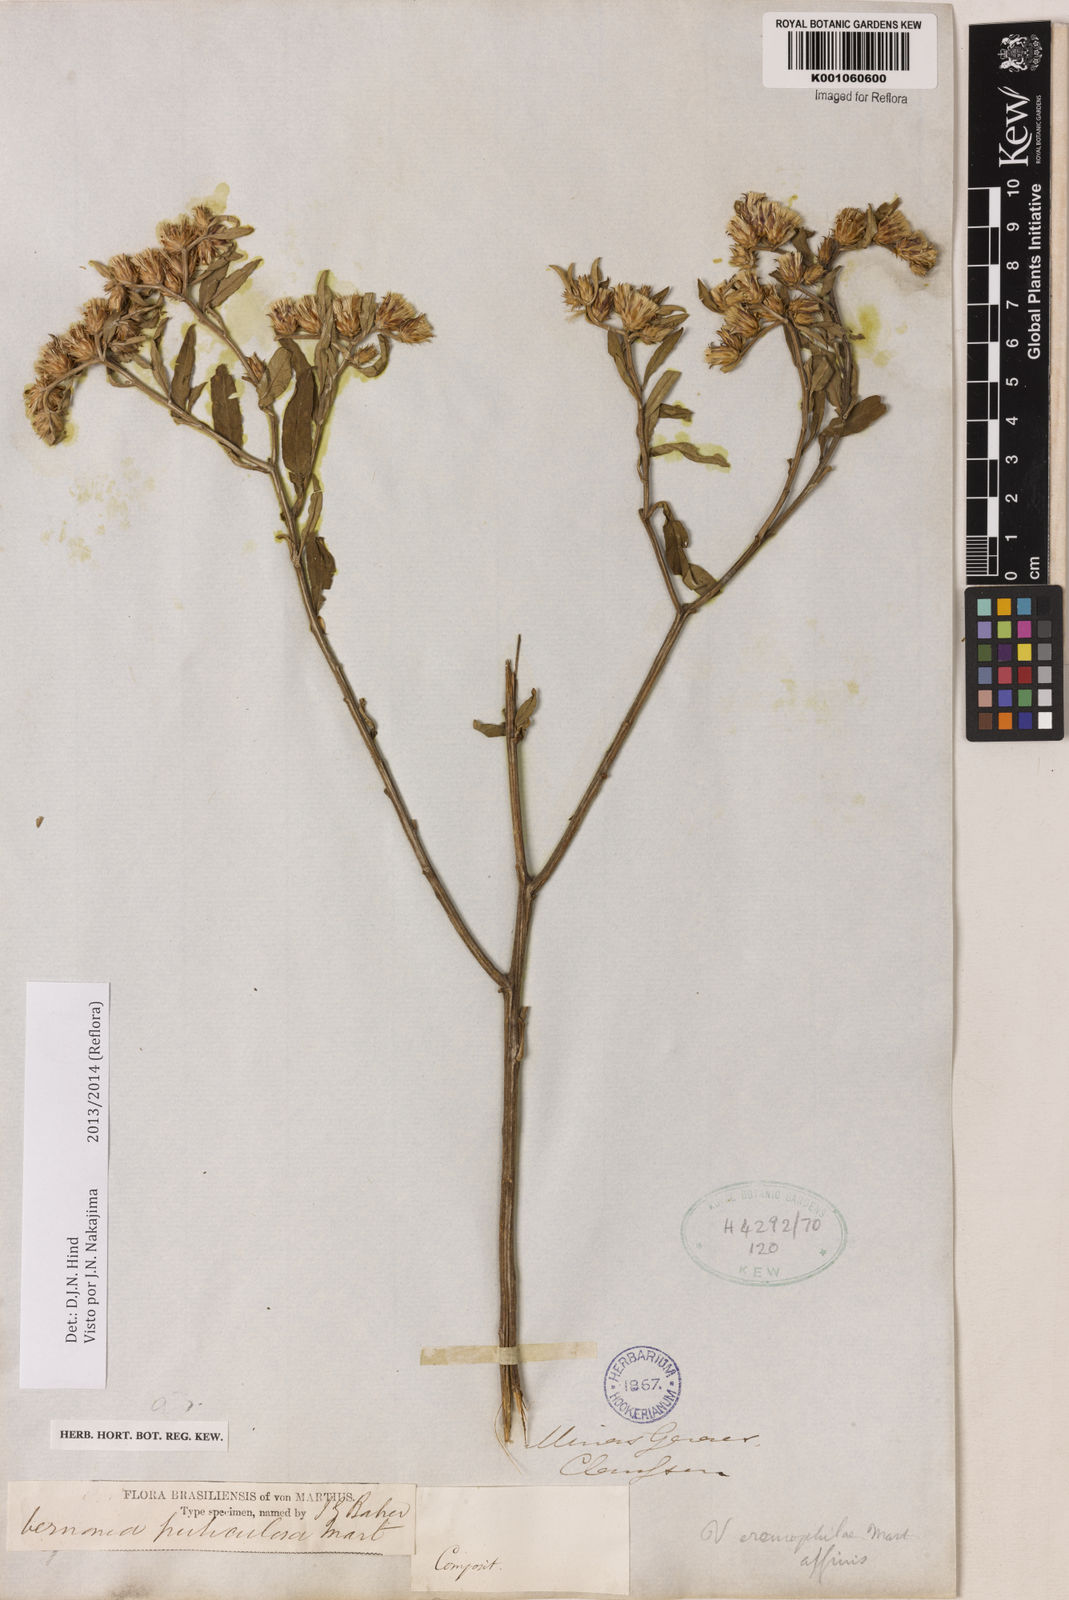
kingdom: Plantae
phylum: Tracheophyta
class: Magnoliopsida
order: Asterales
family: Asteraceae
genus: Lepidaploa
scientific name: Lepidaploa rufogrisea
